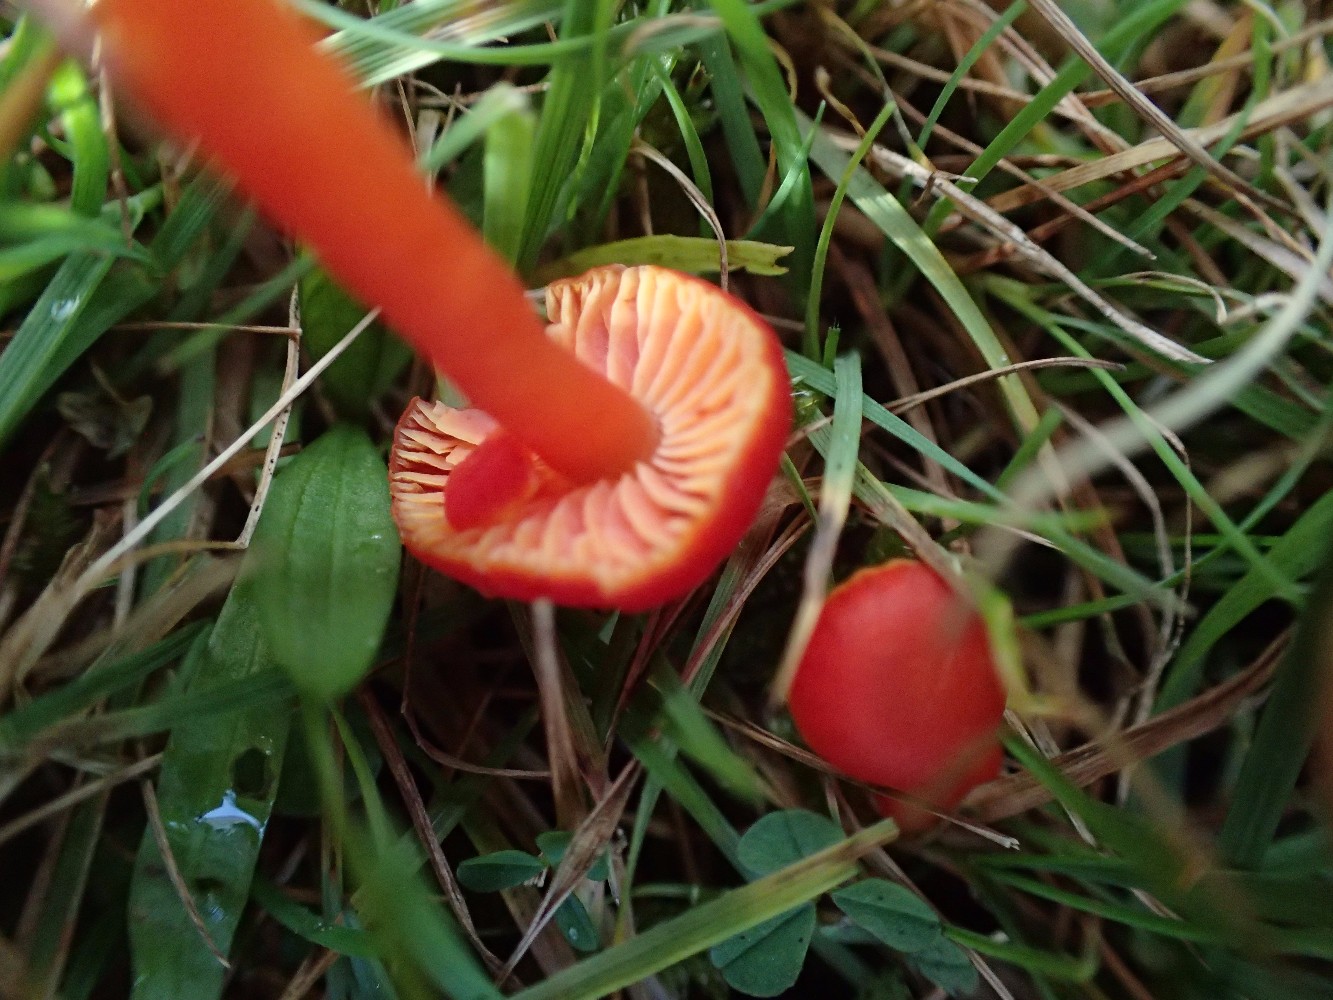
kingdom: Fungi
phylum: Basidiomycota
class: Agaricomycetes
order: Agaricales
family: Hygrophoraceae
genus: Hygrocybe
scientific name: Hygrocybe mucronella
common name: bitter vokshat
